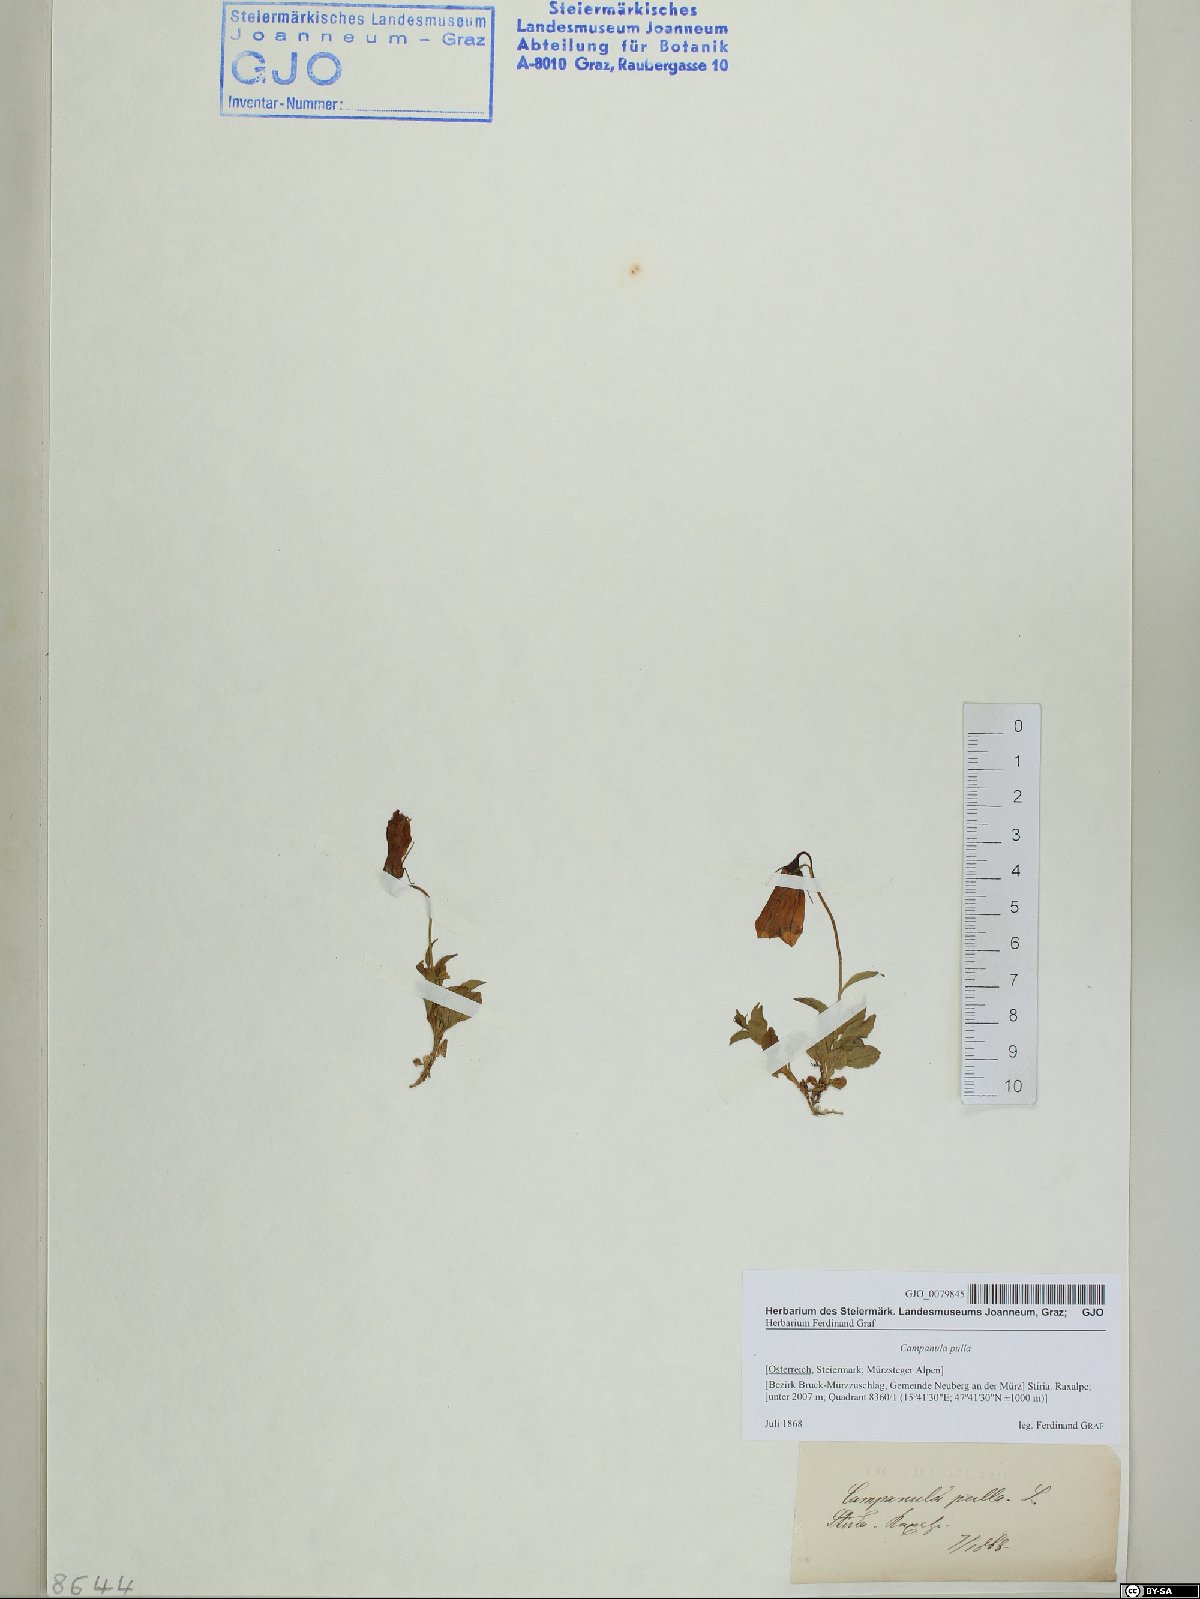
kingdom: Plantae
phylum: Tracheophyta
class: Magnoliopsida
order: Asterales
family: Campanulaceae
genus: Campanula
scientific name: Campanula pulla
